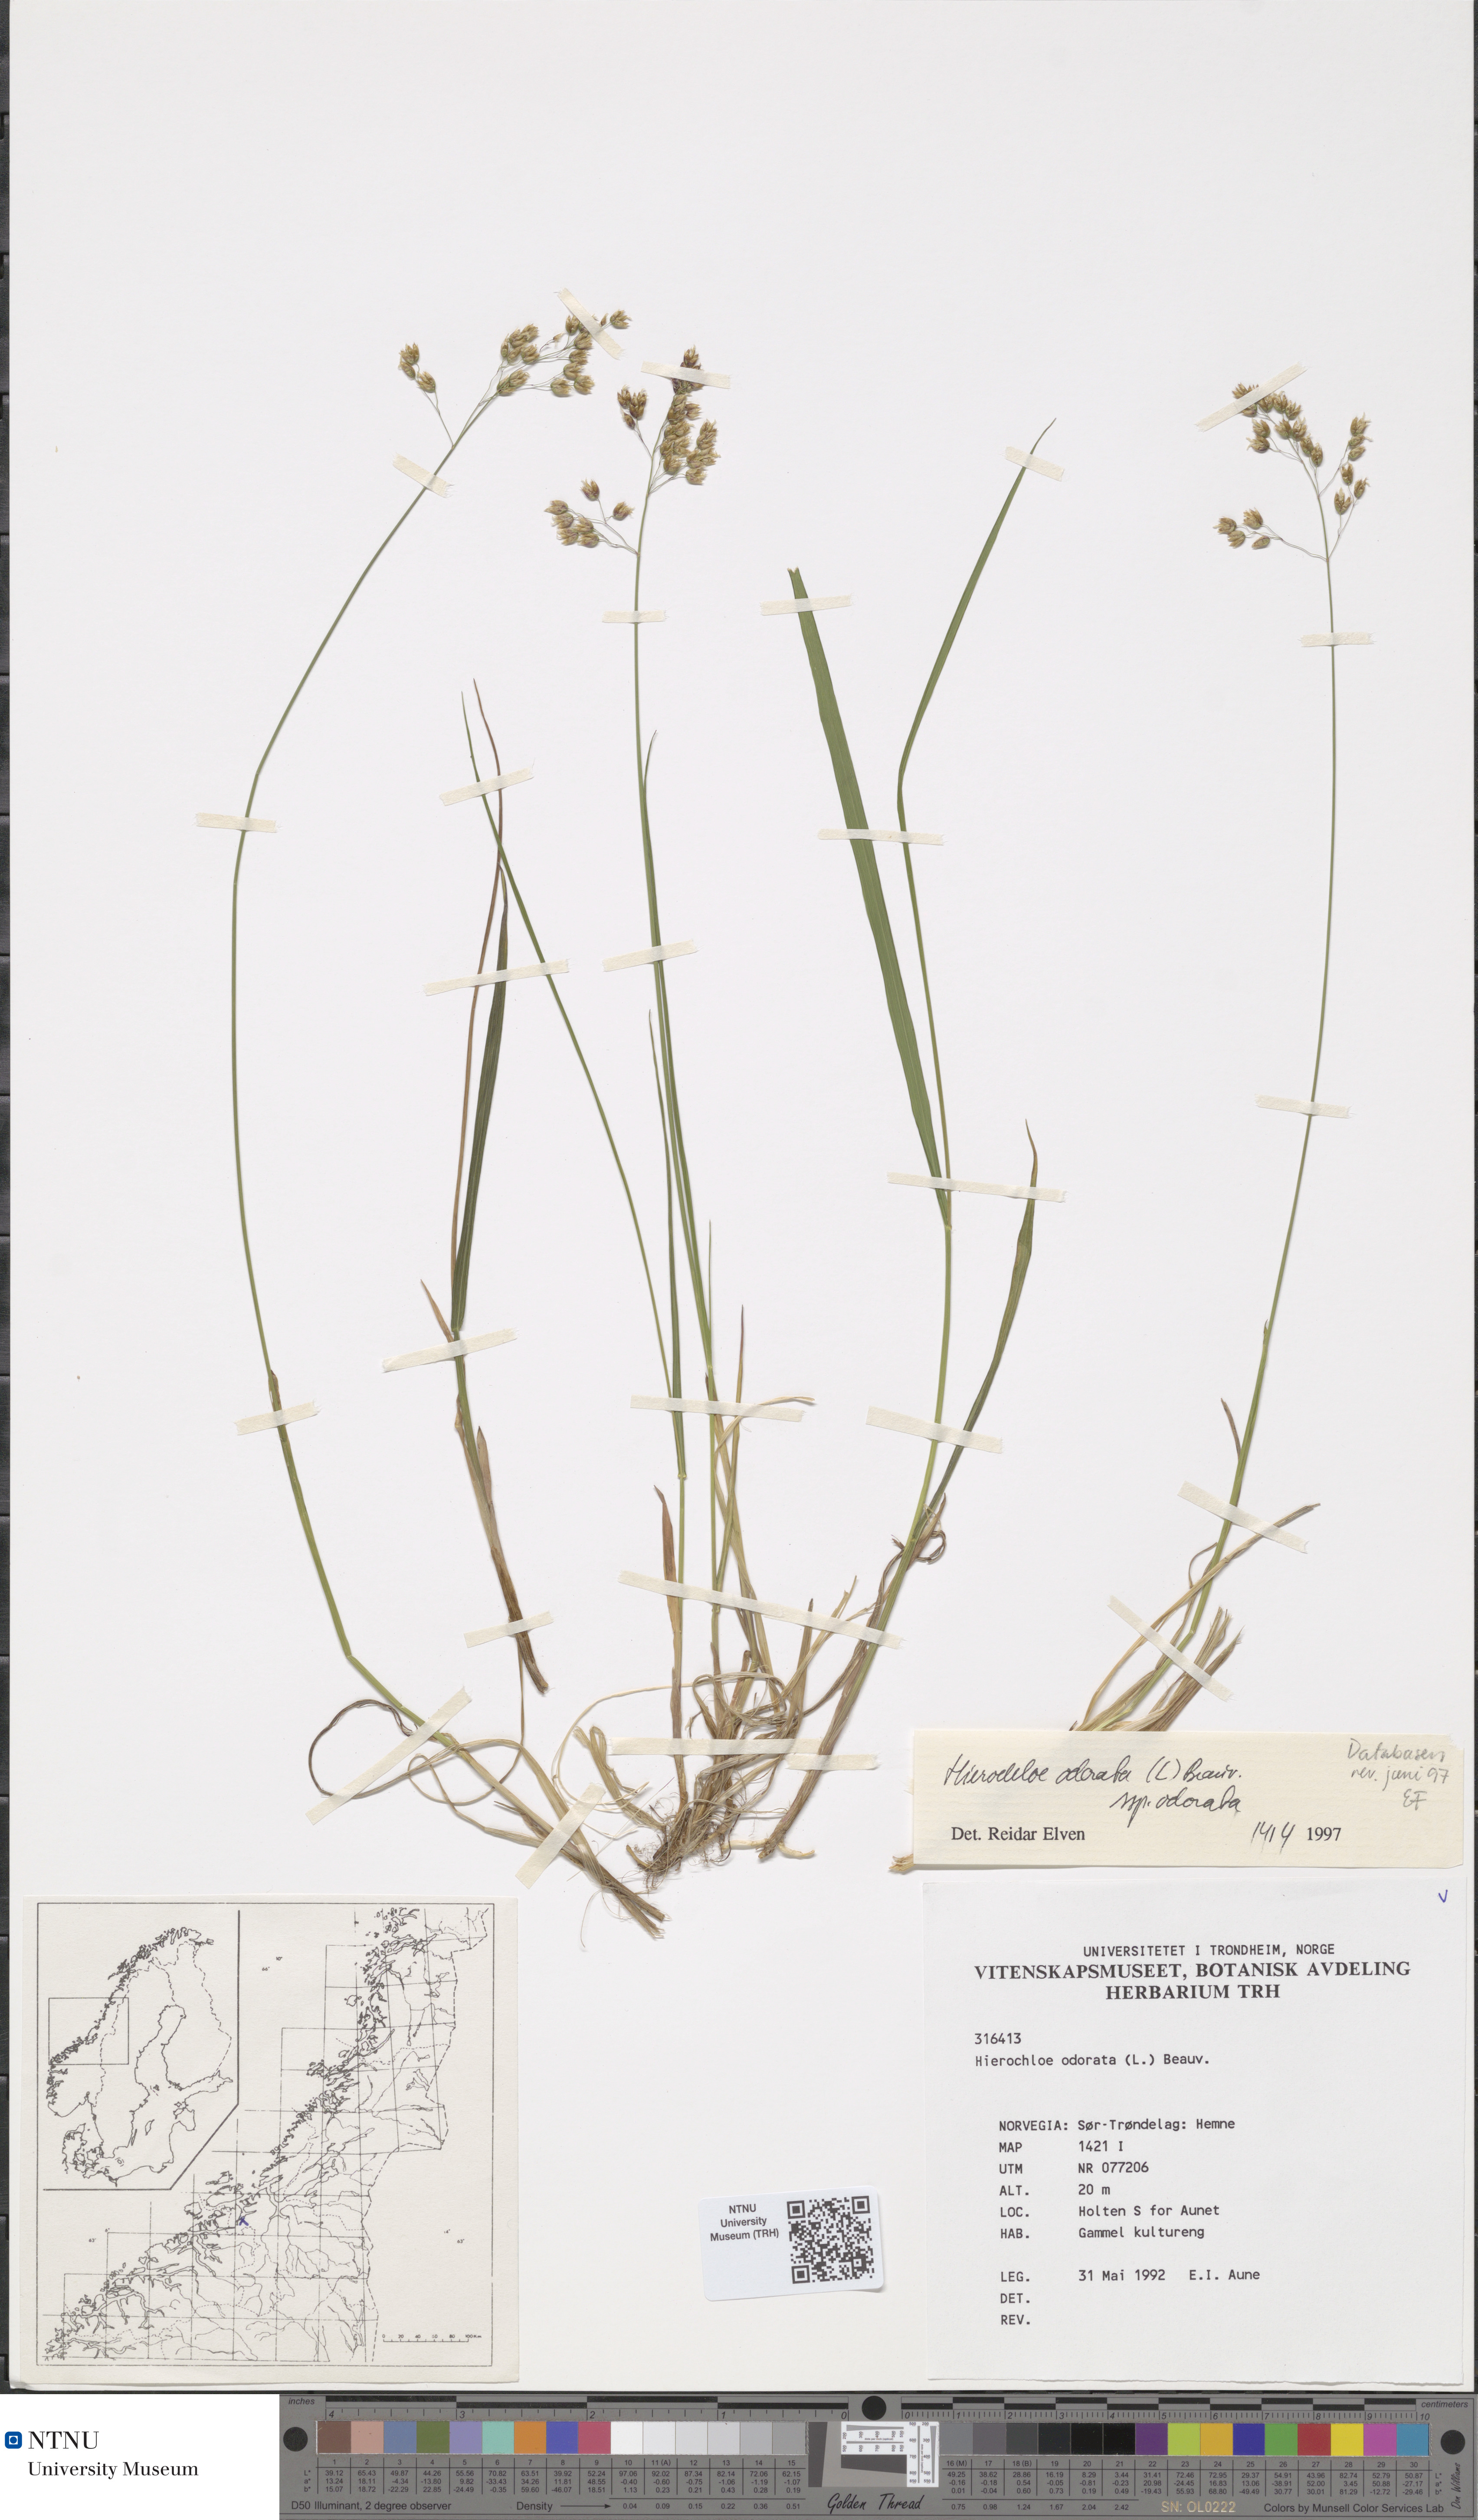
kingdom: Plantae
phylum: Tracheophyta
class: Liliopsida
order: Poales
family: Poaceae
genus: Anthoxanthum
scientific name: Anthoxanthum nitens
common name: Holy grass
